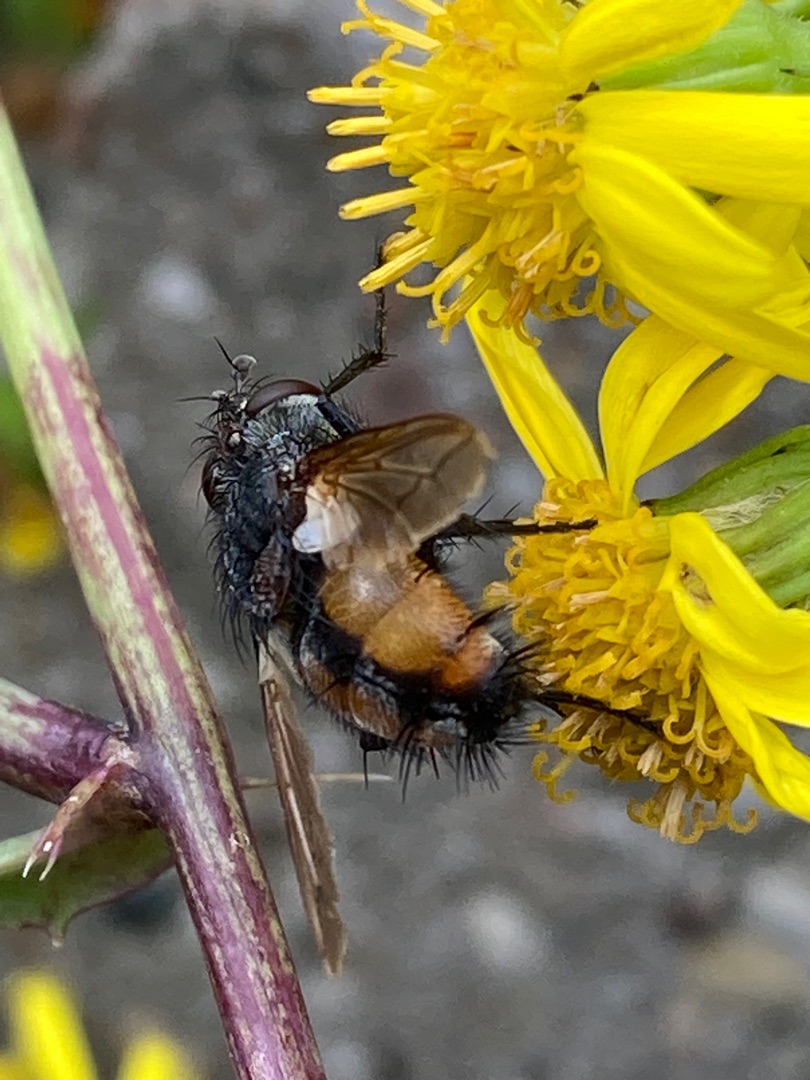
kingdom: Animalia
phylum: Arthropoda
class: Insecta
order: Diptera
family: Tachinidae
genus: Peleteria
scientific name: Peleteria rubescens
